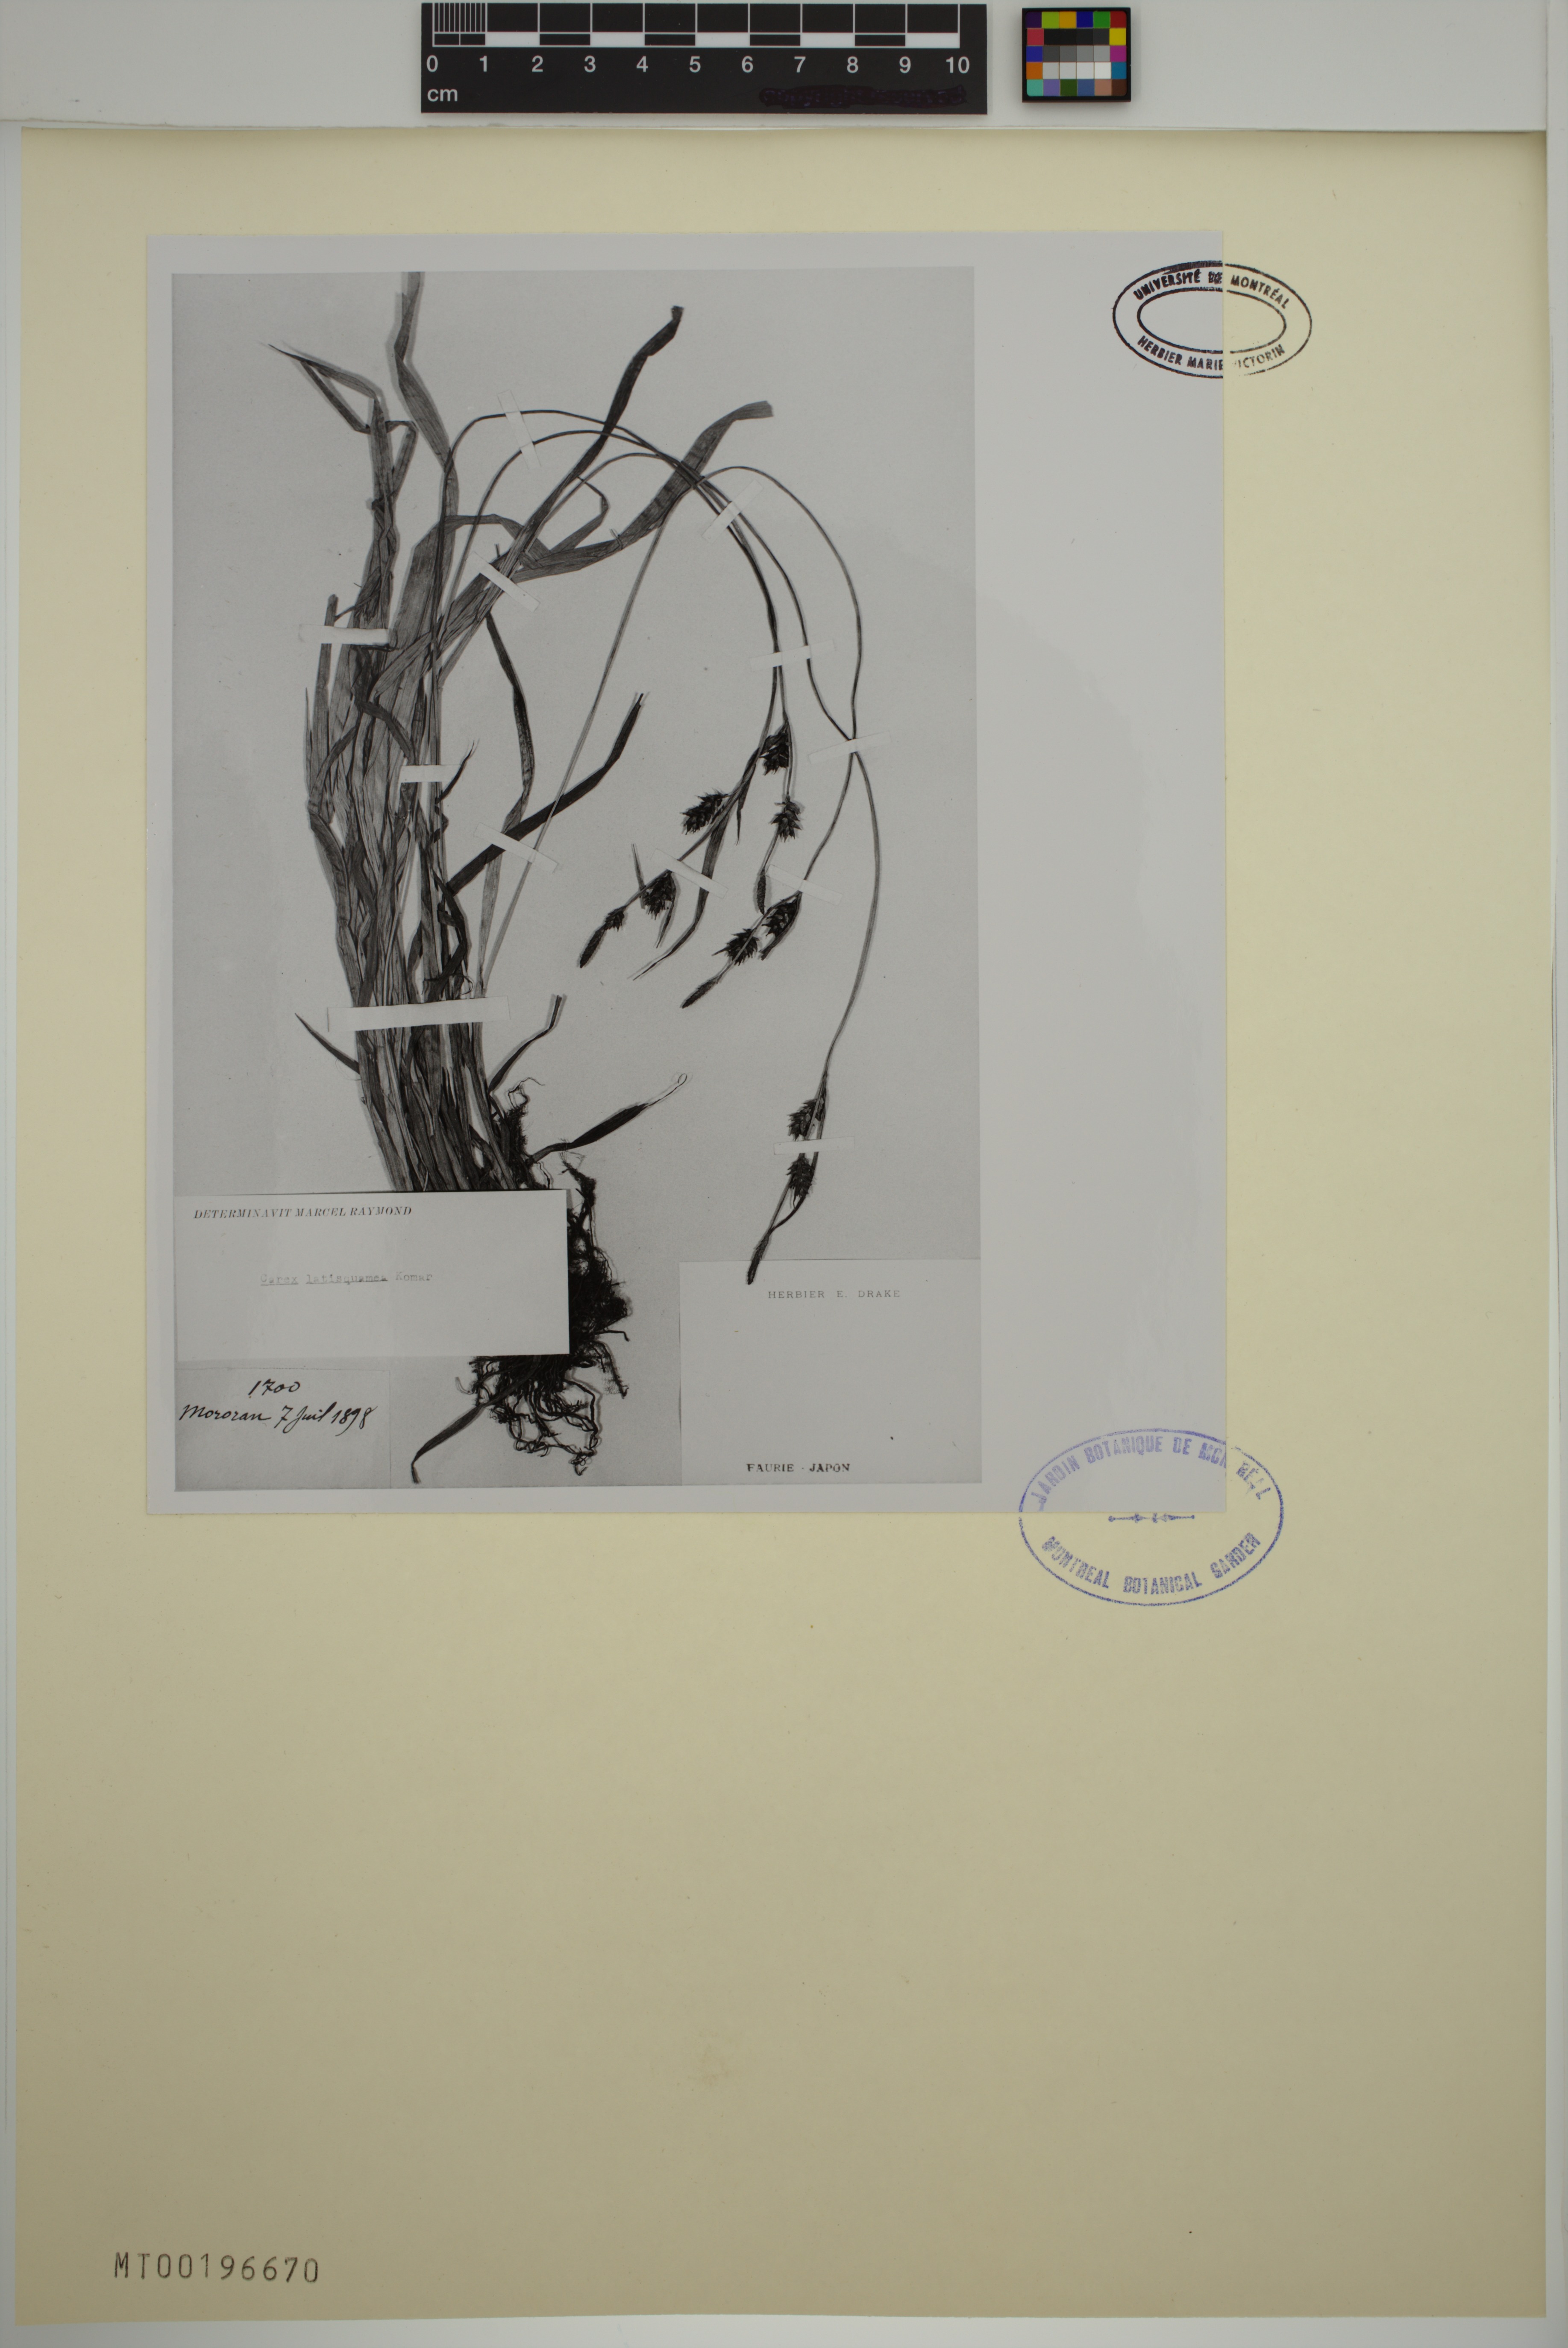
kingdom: Plantae
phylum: Tracheophyta
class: Liliopsida
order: Poales
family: Cyperaceae
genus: Carex
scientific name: Carex latisquamea
